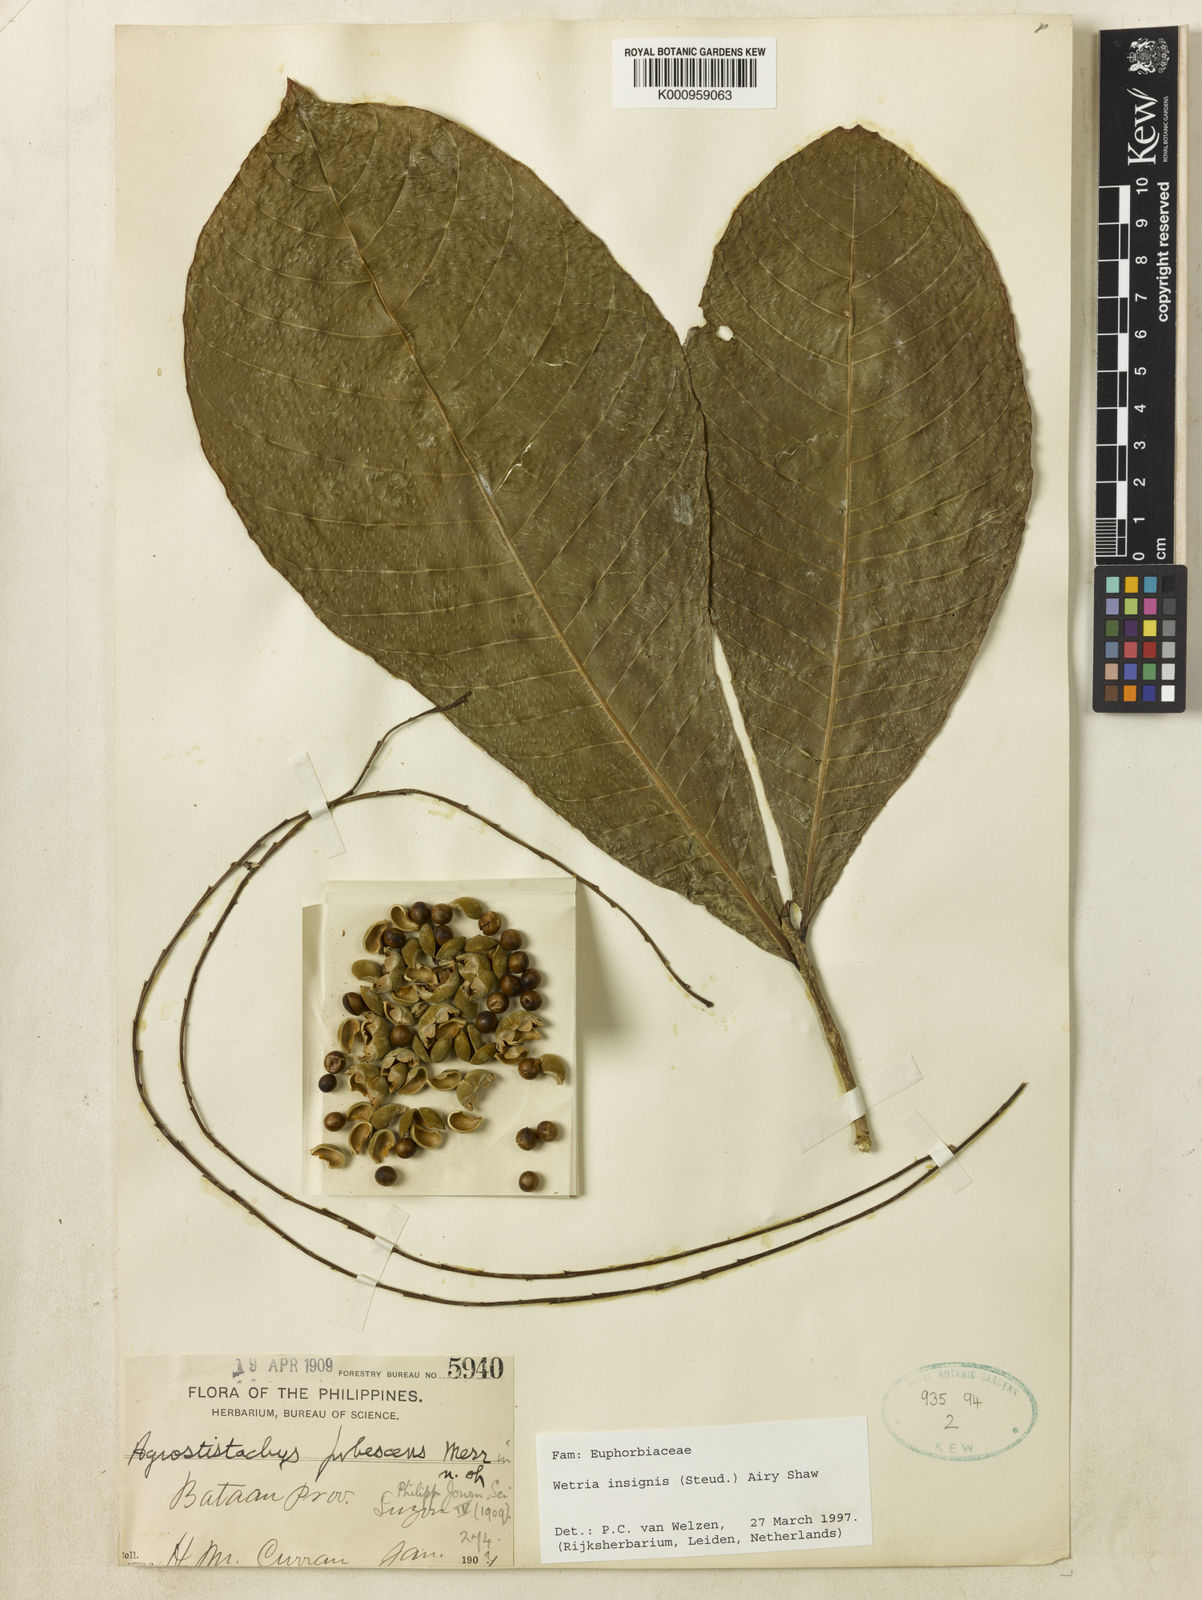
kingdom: Plantae
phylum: Tracheophyta
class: Magnoliopsida
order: Malpighiales
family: Euphorbiaceae
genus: Wetria
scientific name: Wetria insignis
